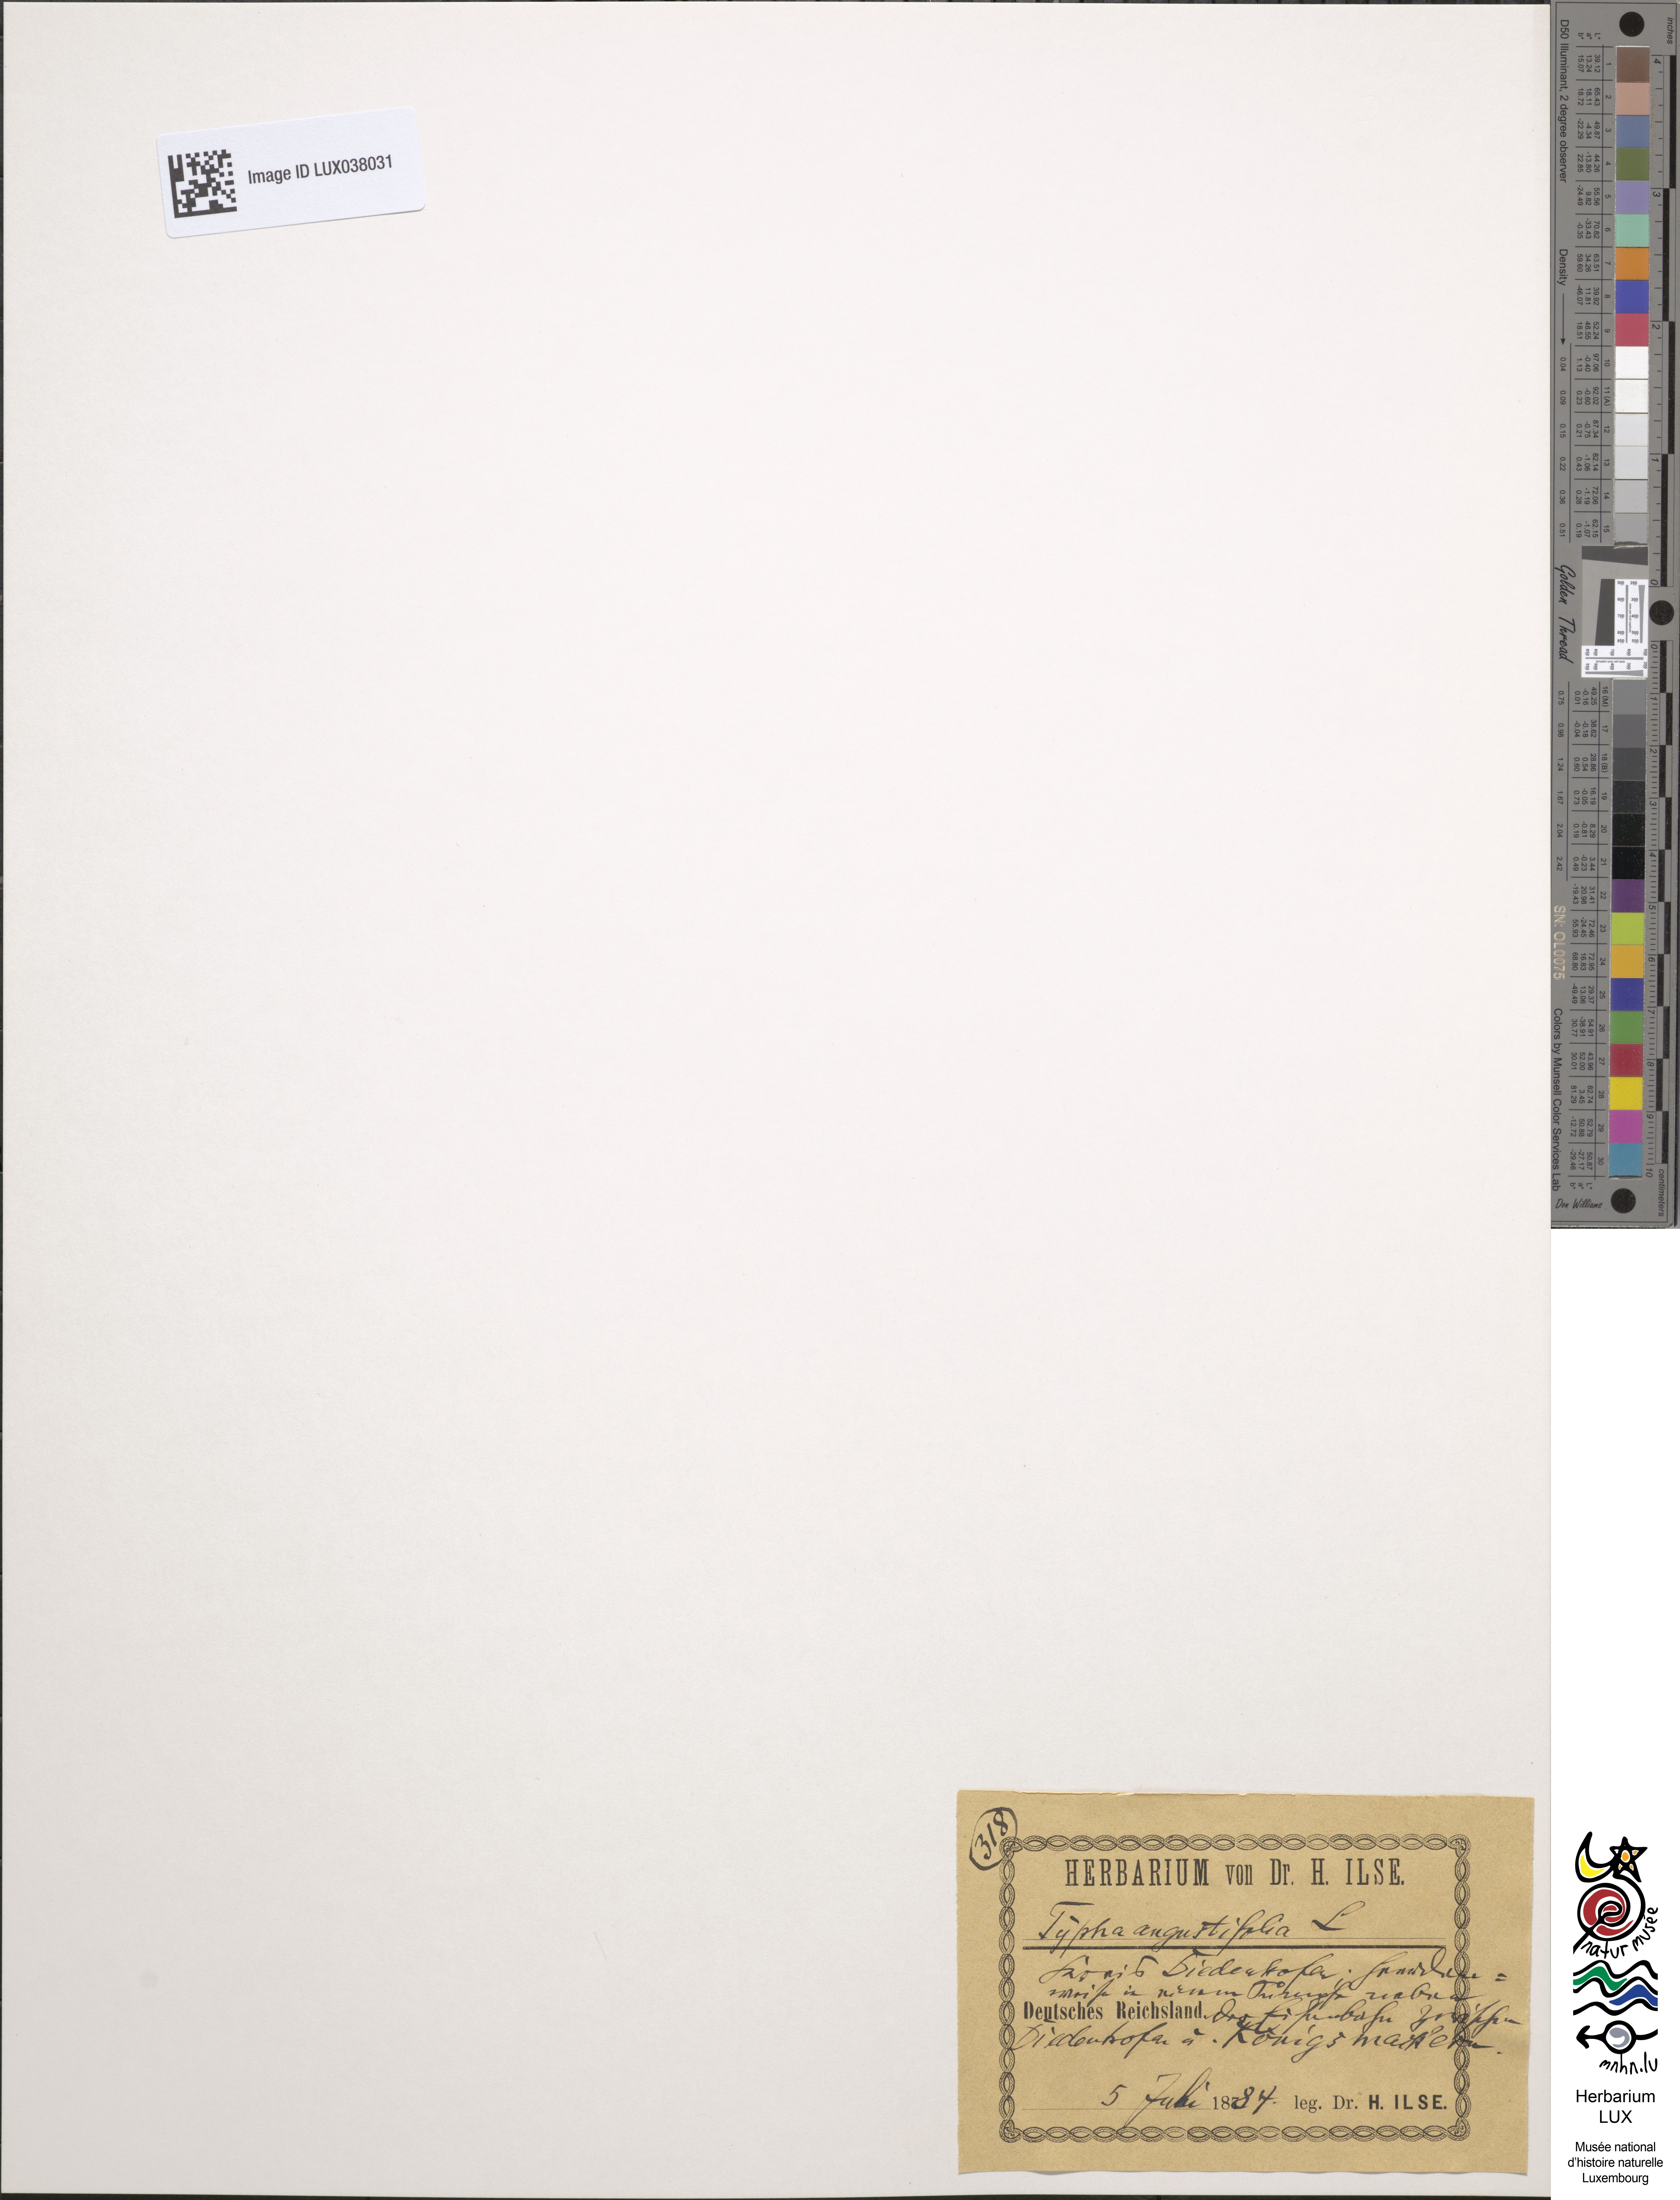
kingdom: Plantae
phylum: Tracheophyta
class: Liliopsida
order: Poales
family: Typhaceae
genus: Typha
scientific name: Typha angustifolia
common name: Lesser bulrush
